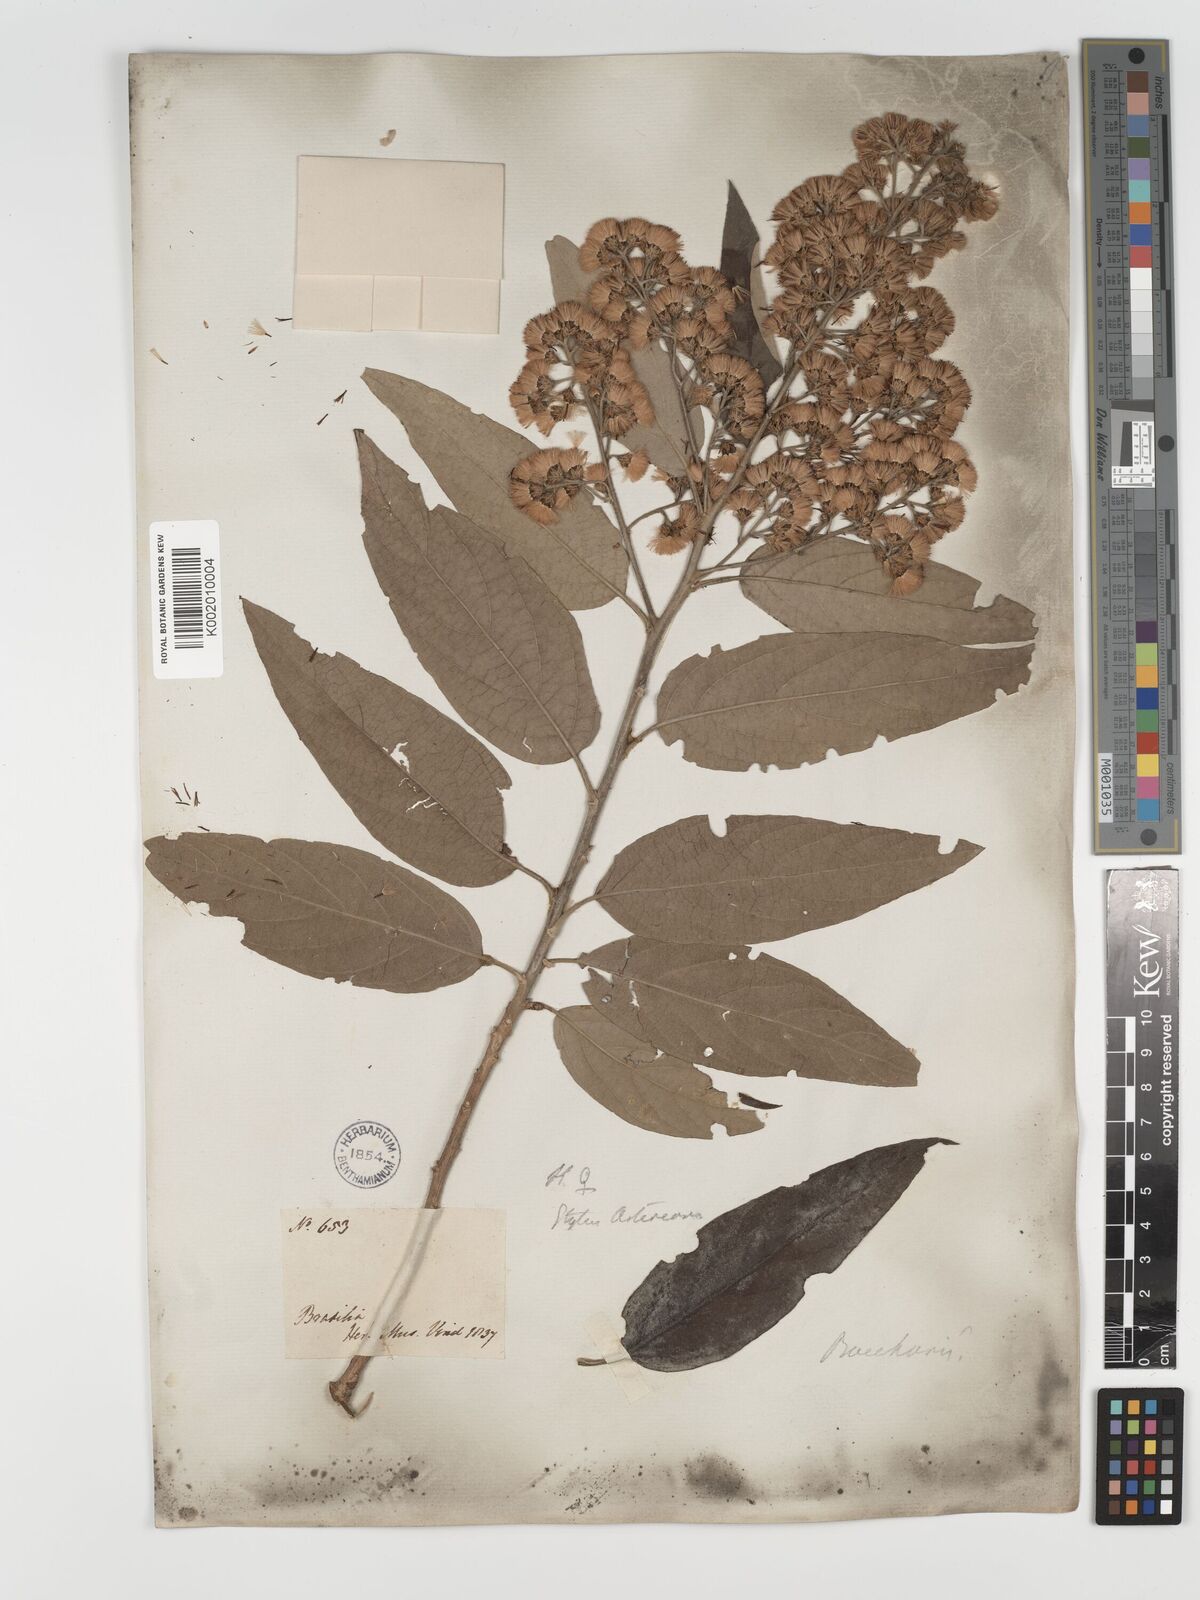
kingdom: Plantae
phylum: Tracheophyta
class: Magnoliopsida
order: Asterales
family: Asteraceae
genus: Moquiniastrum
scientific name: Moquiniastrum polymorphum
